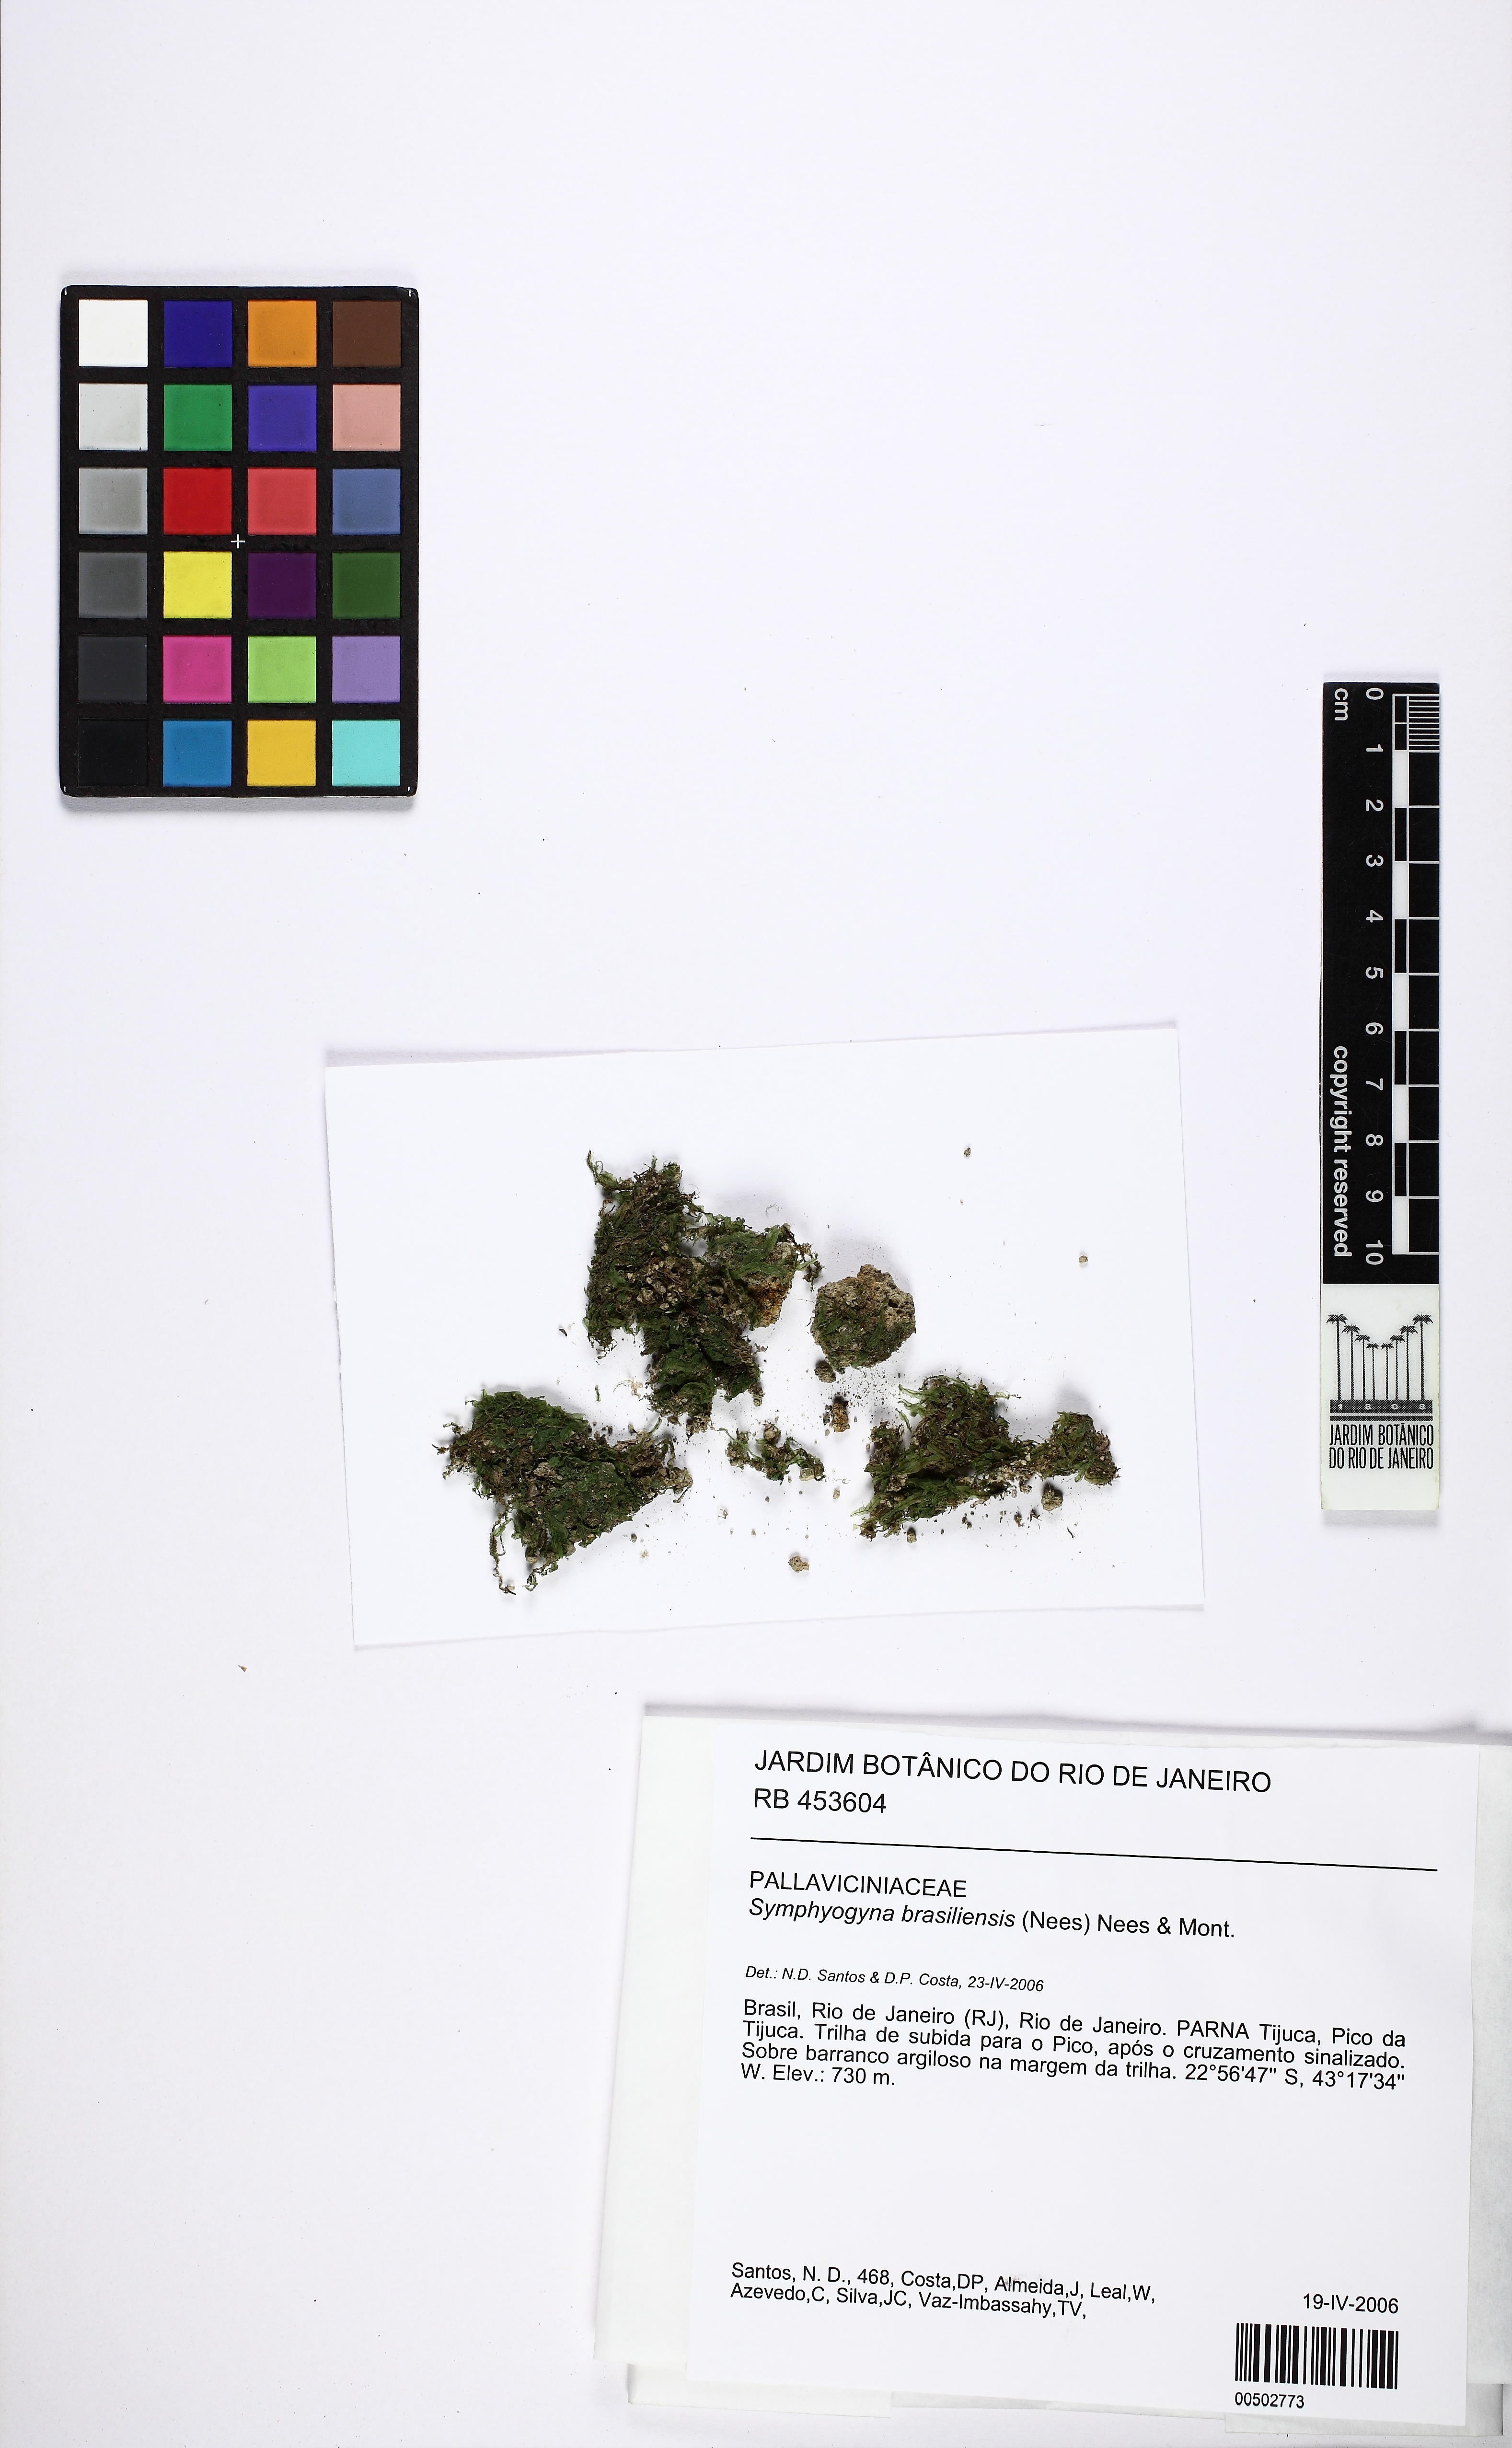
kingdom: Plantae
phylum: Marchantiophyta
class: Jungermanniopsida
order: Pallaviciniales
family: Pallaviciniaceae
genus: Symphyogyna
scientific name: Symphyogyna brasiliensis
